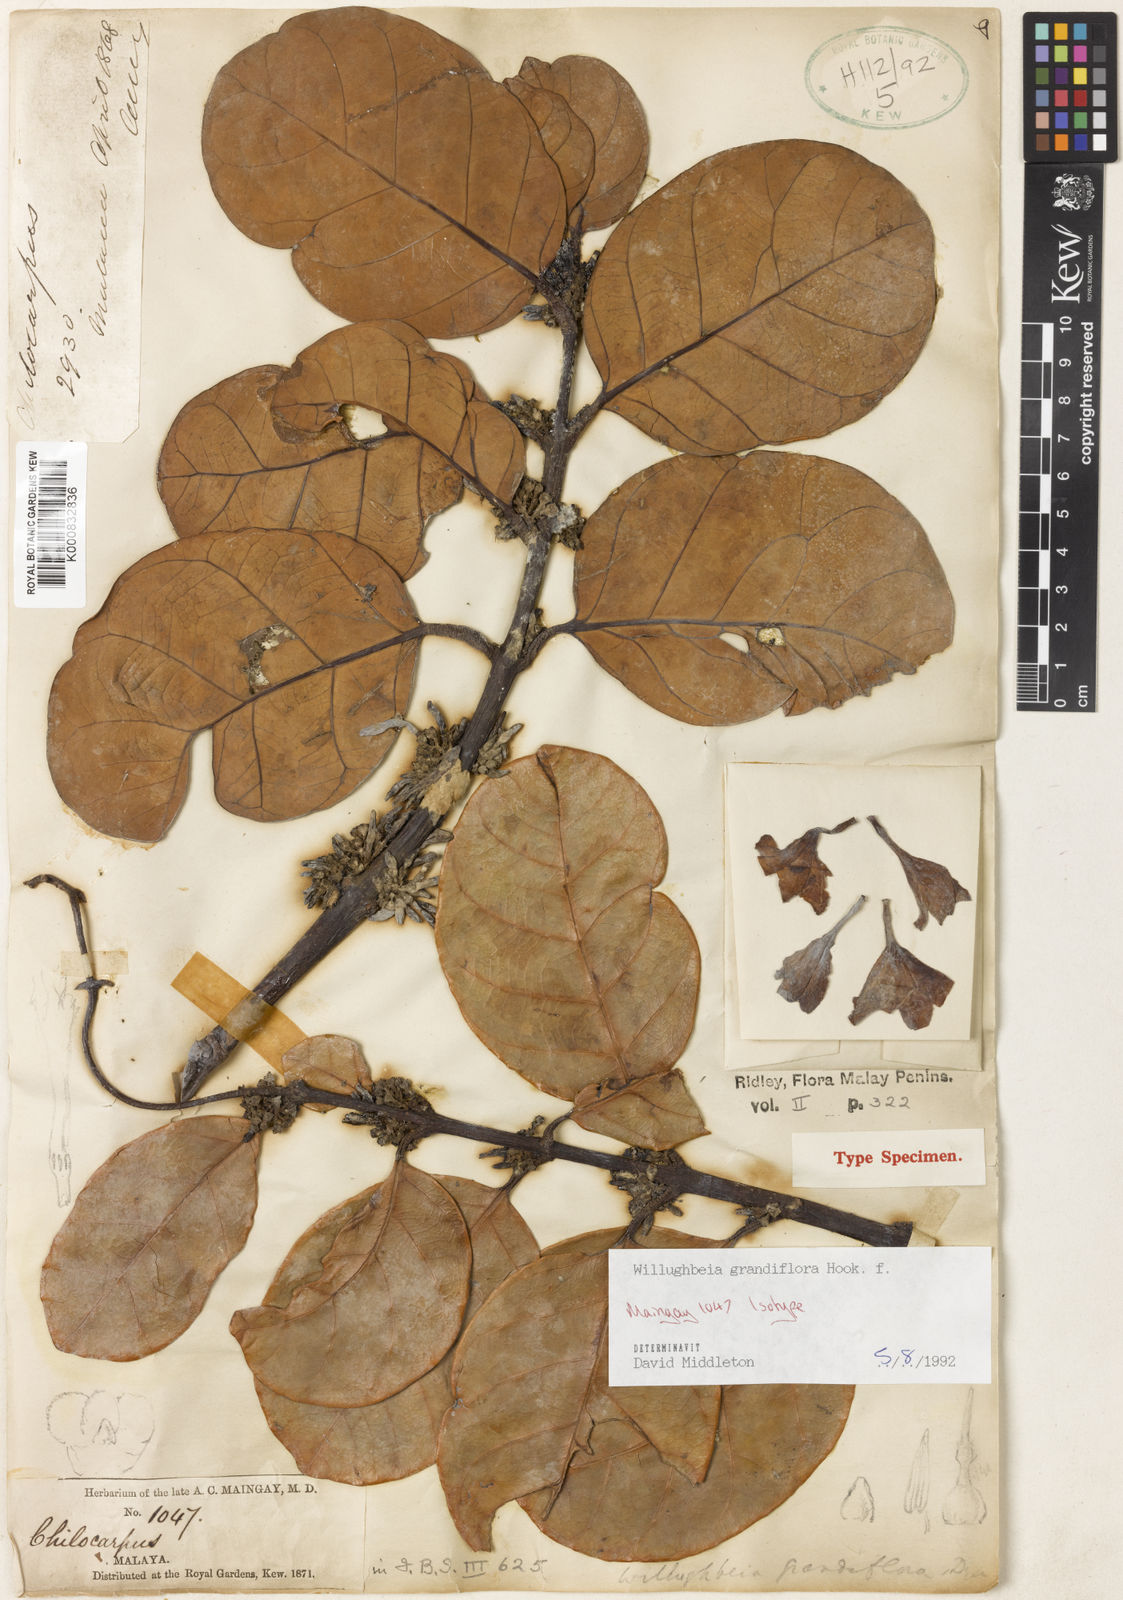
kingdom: Plantae
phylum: Tracheophyta
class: Magnoliopsida
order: Gentianales
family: Apocynaceae
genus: Willughbeia
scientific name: Willughbeia grandiflora
